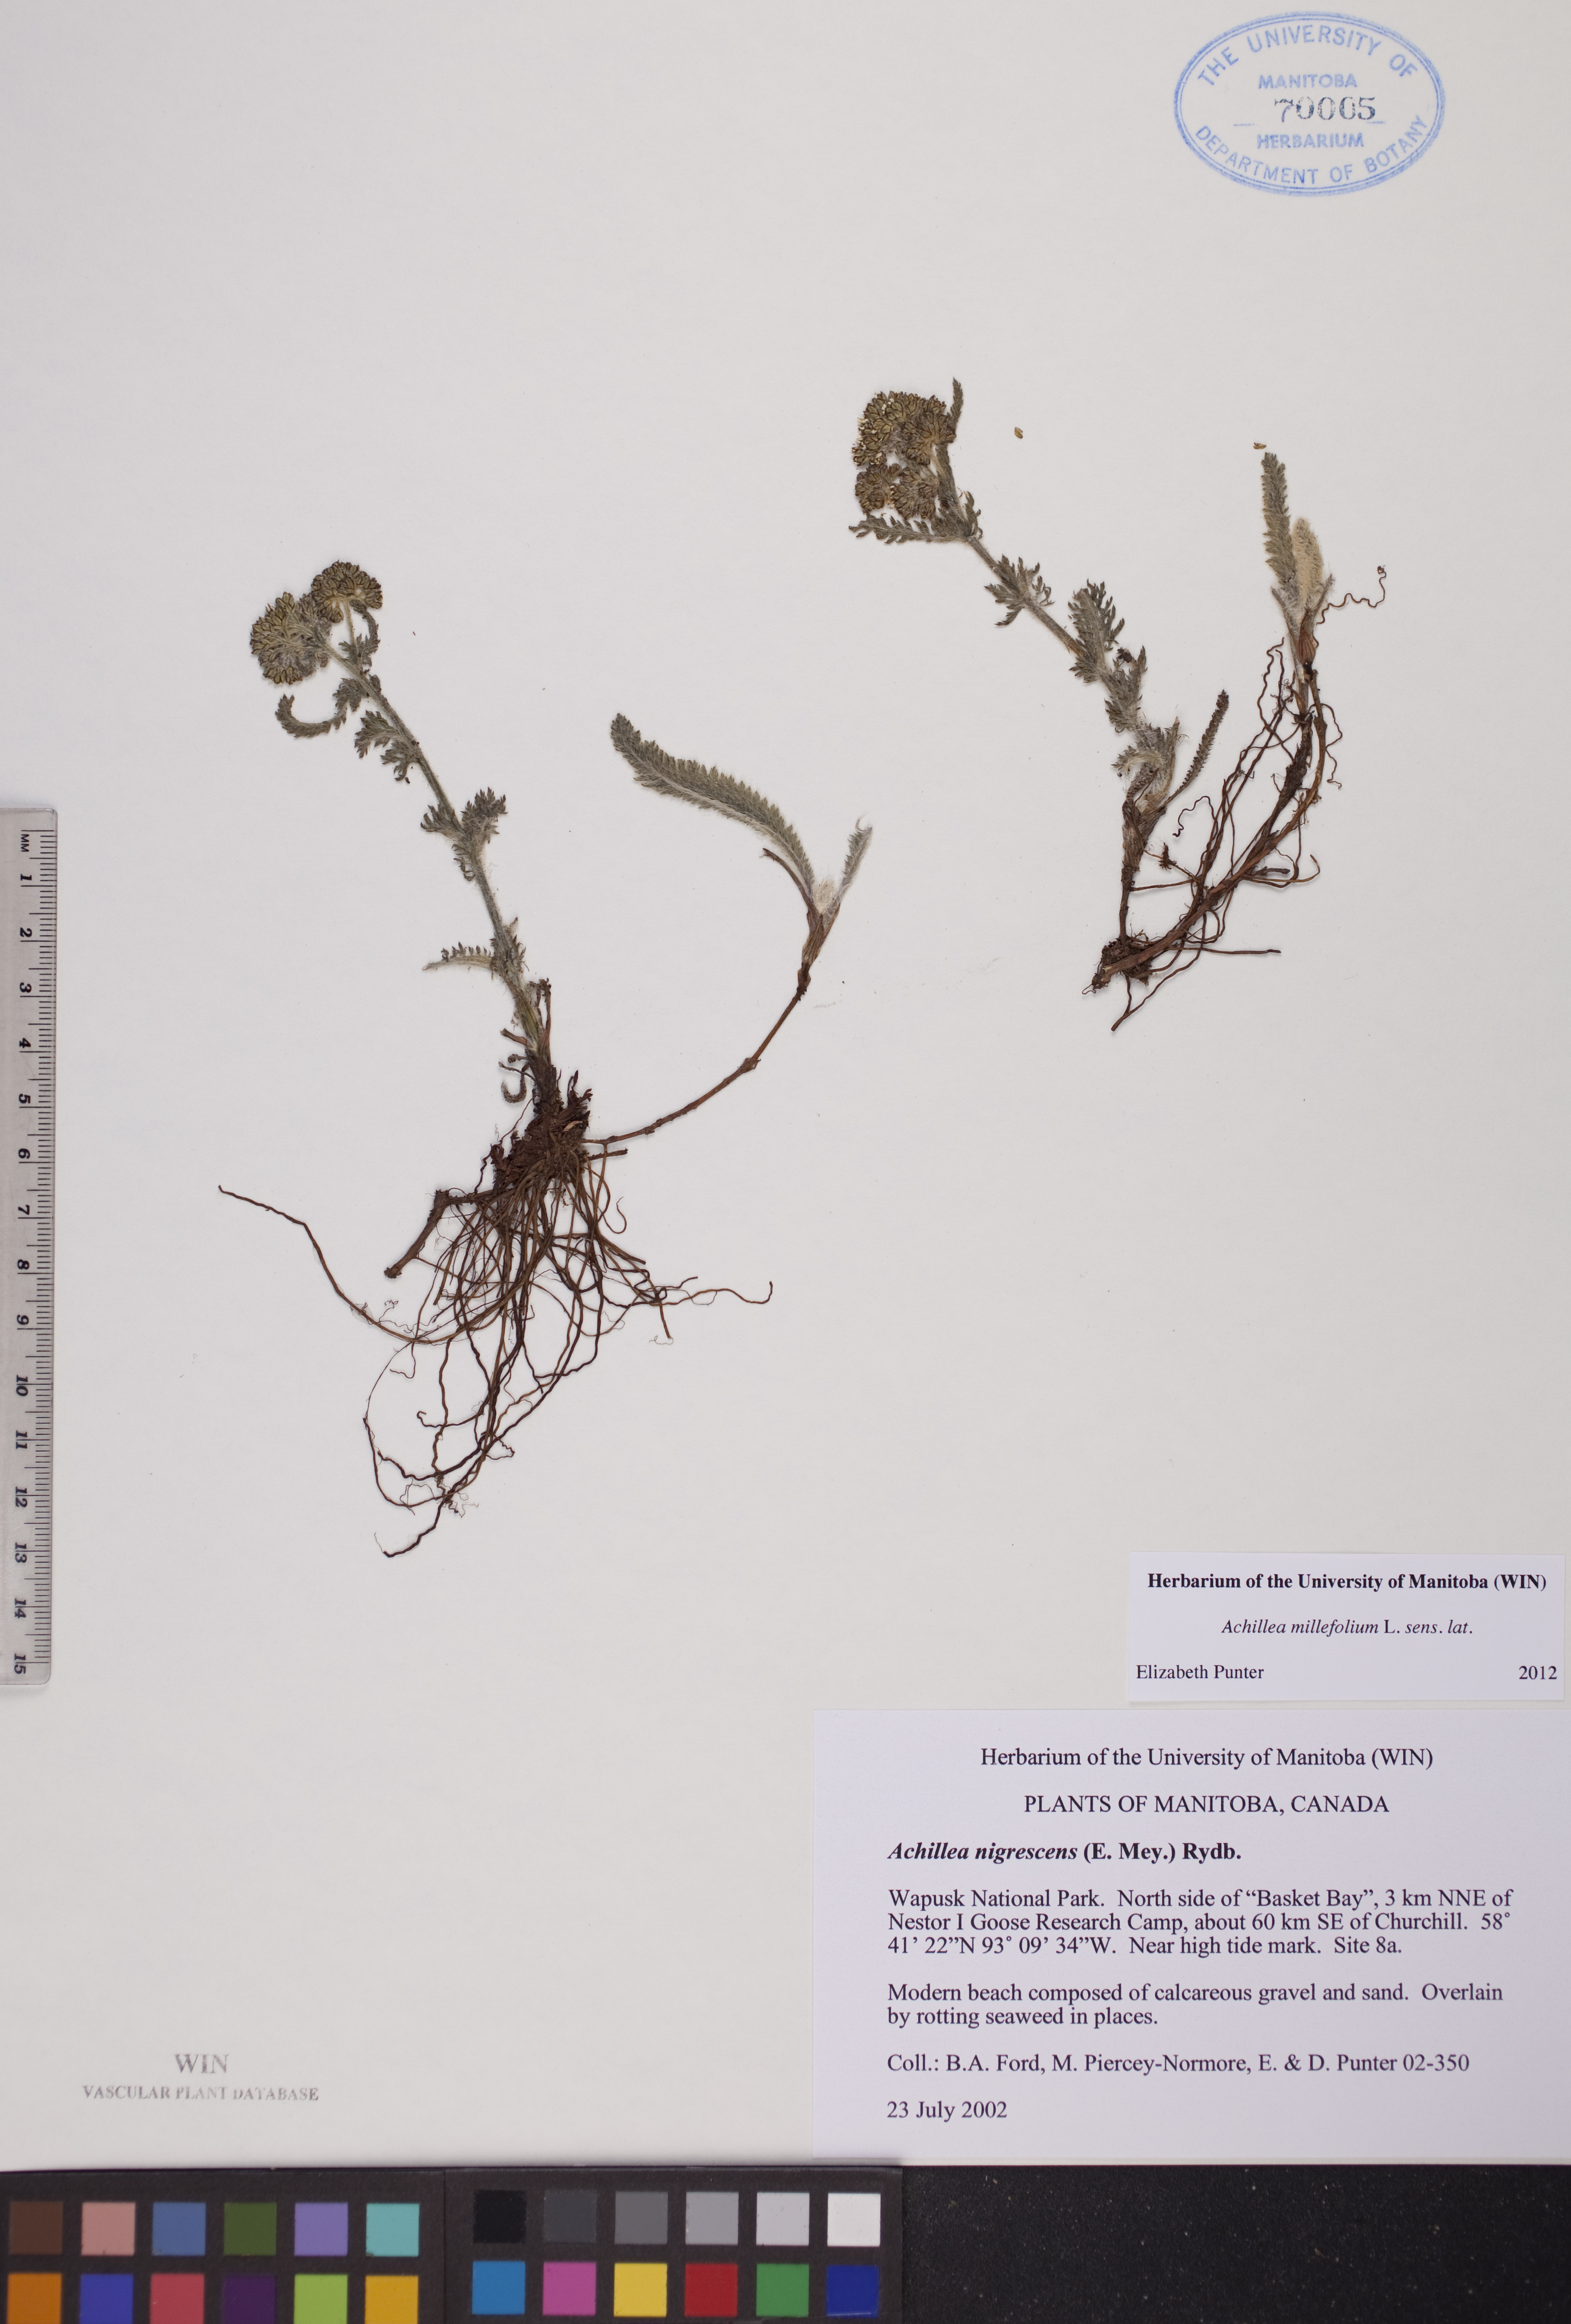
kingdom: Plantae
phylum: Tracheophyta
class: Magnoliopsida
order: Asterales
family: Asteraceae
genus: Achillea
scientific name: Achillea millefolium
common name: Yarrow
